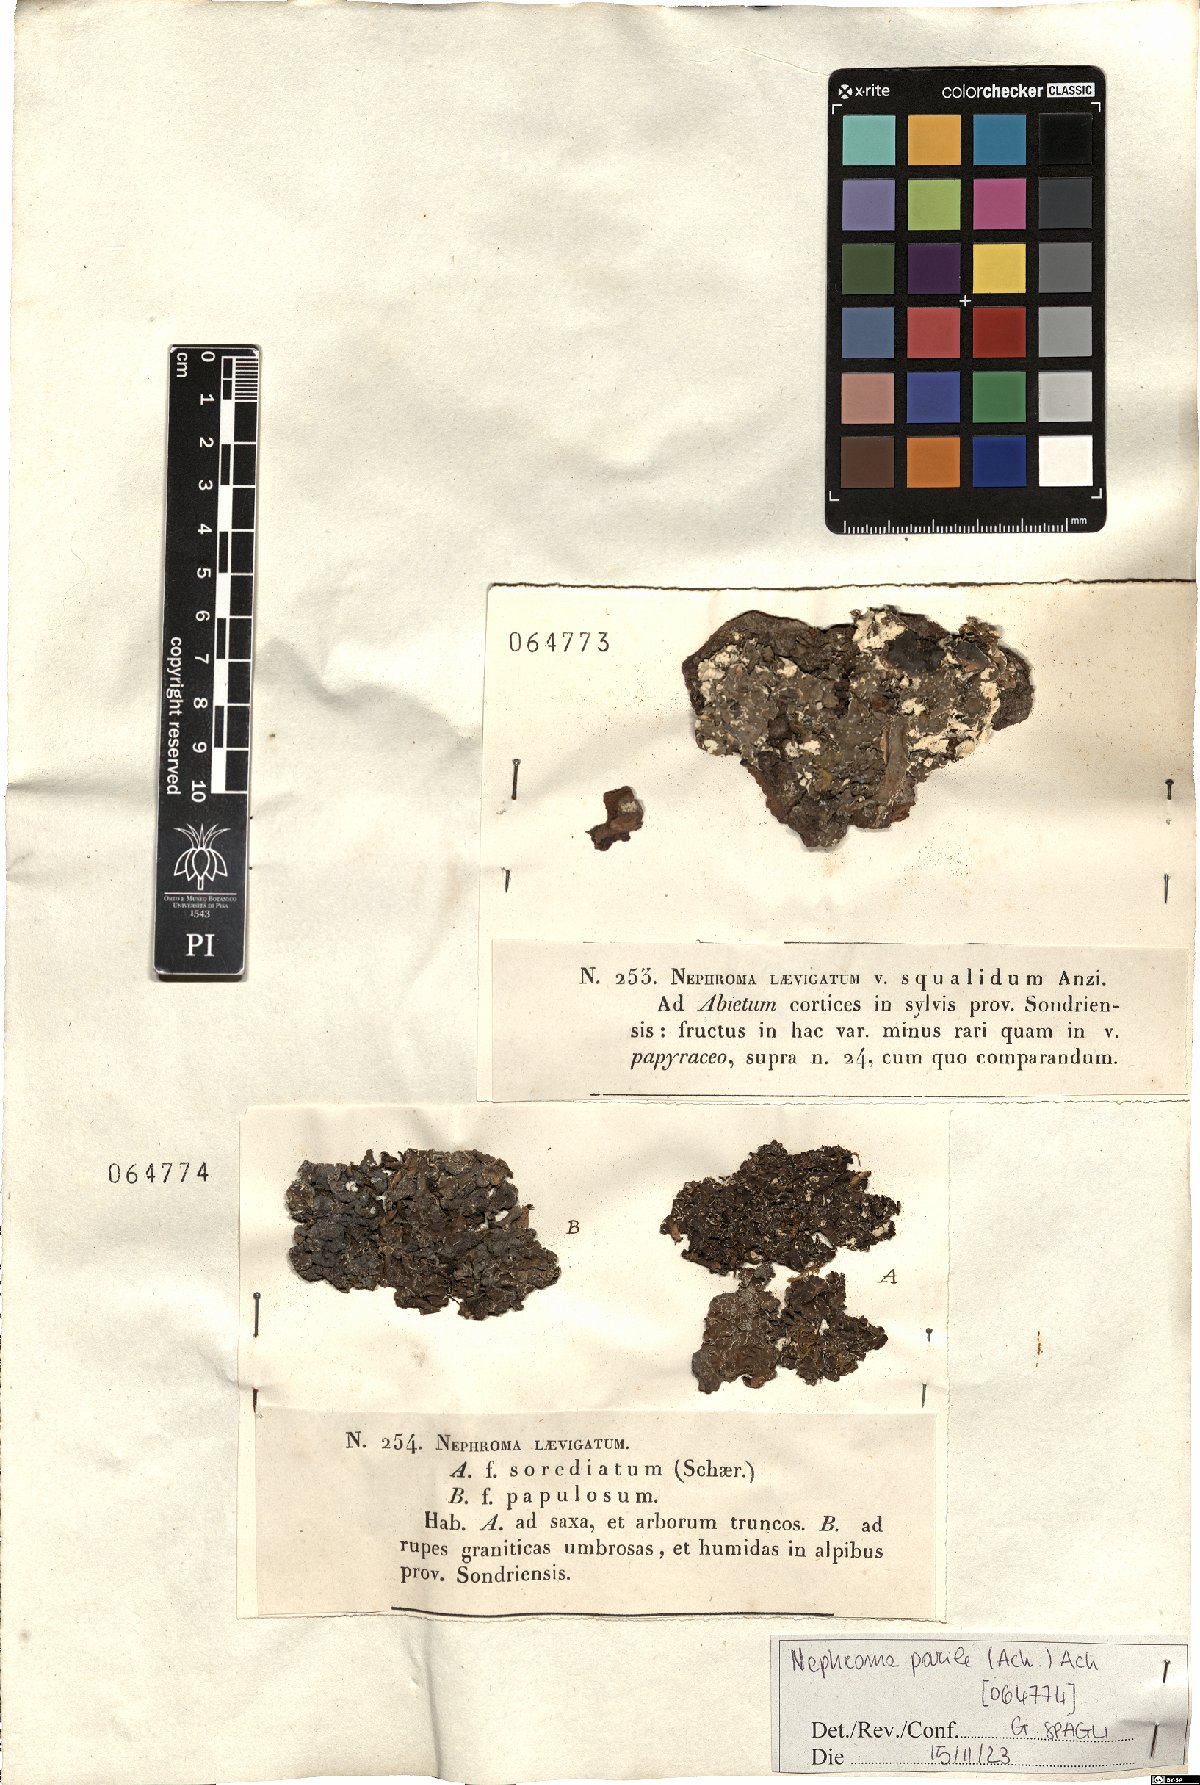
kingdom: Fungi
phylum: Ascomycota
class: Lecanoromycetes
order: Peltigerales
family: Nephromataceae
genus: Nephroma
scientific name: Nephroma parile
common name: Powdery kidney lichen
